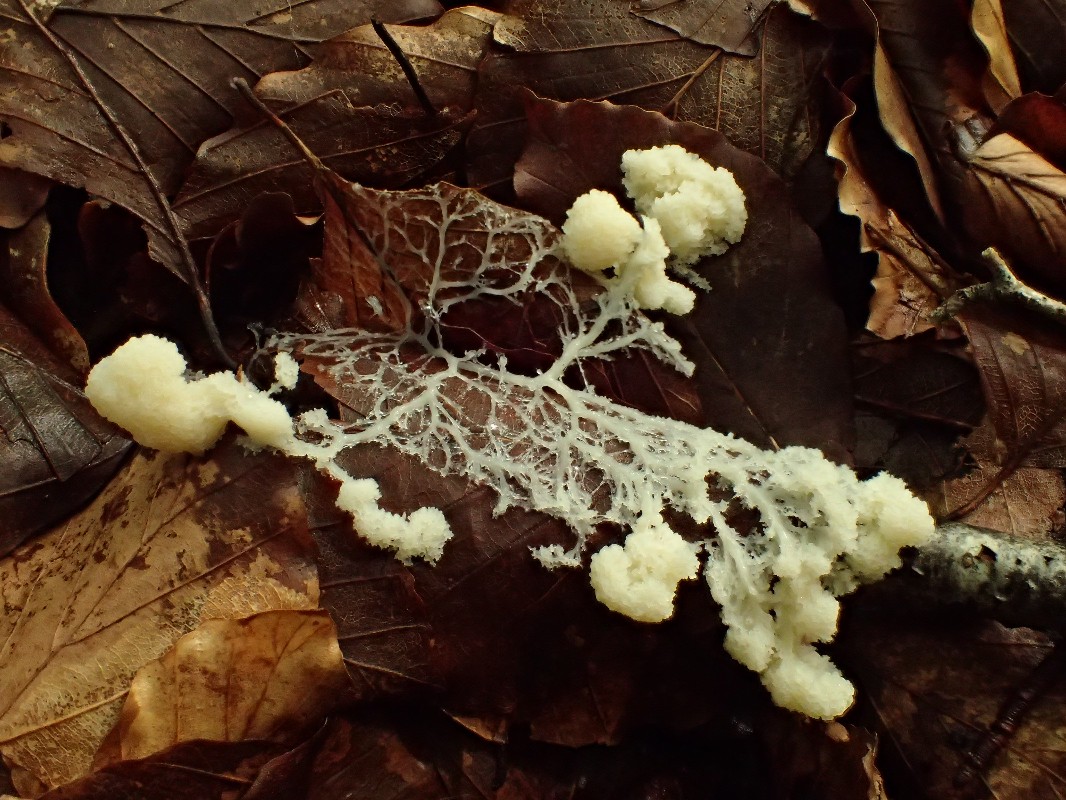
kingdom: Protozoa
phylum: Mycetozoa
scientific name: Mycetozoa
